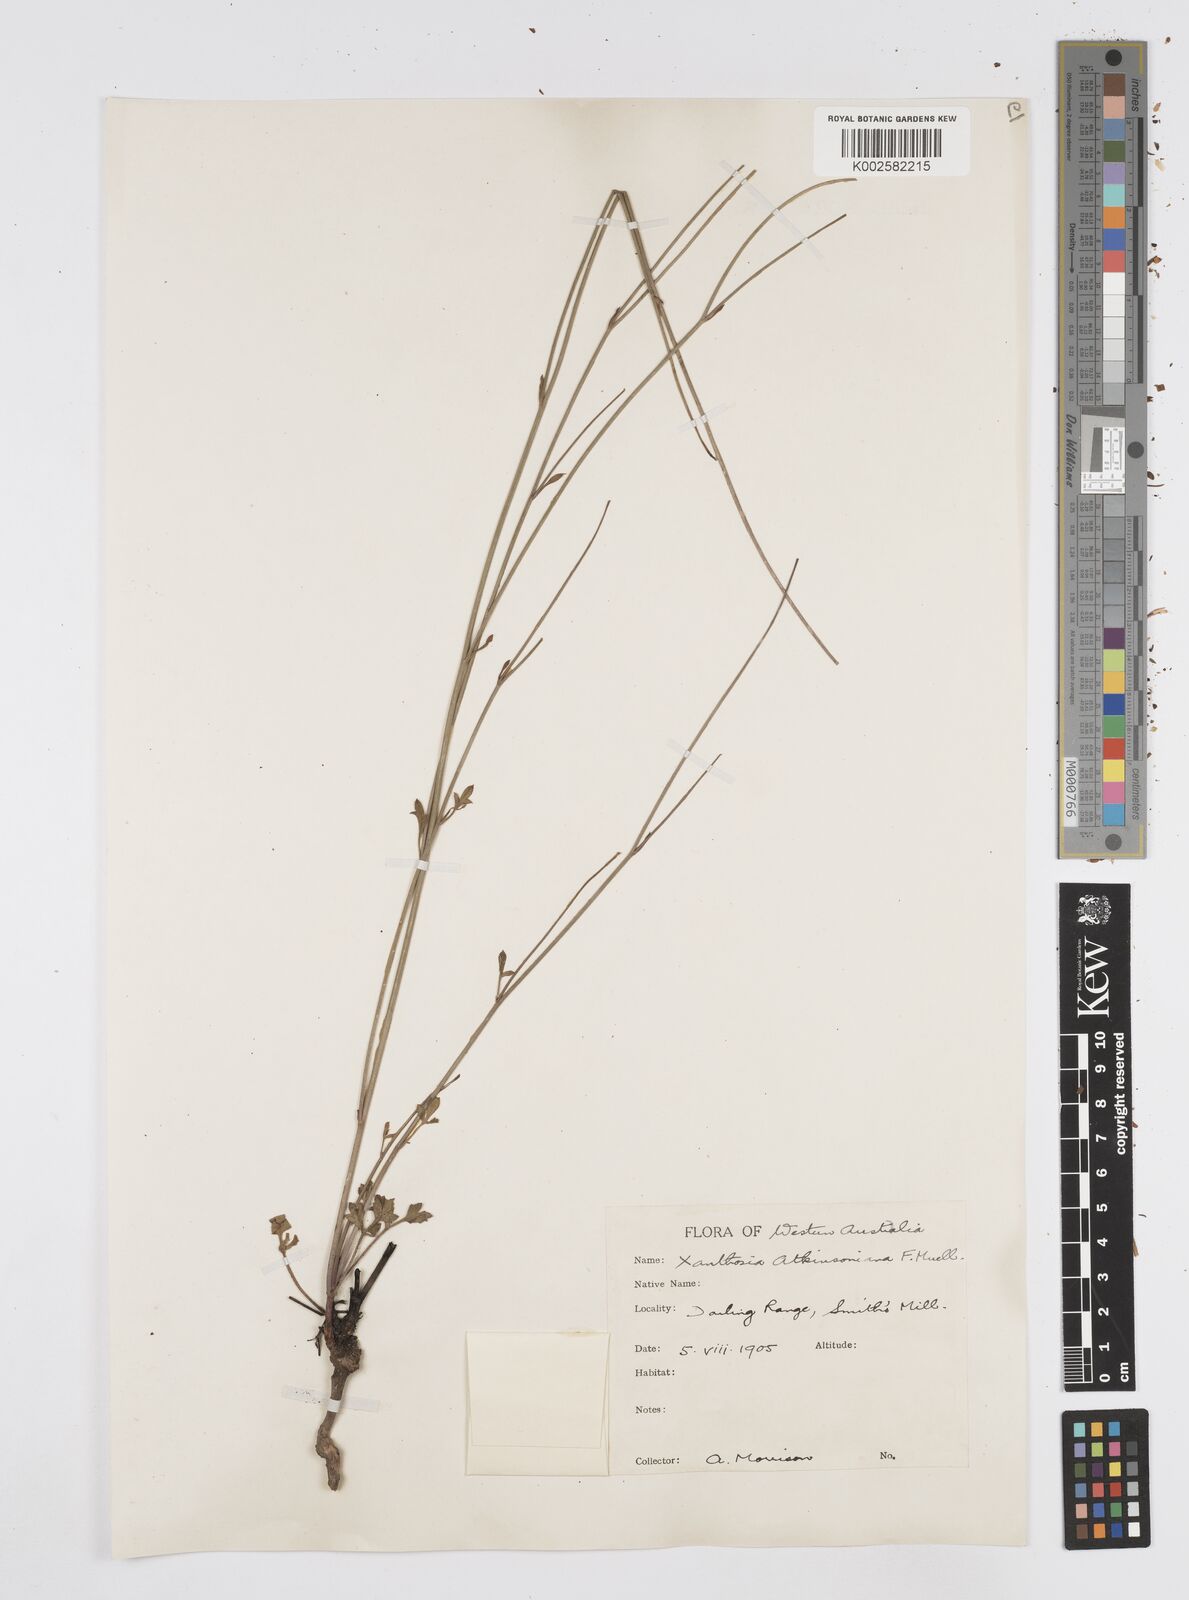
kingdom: Plantae
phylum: Tracheophyta
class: Magnoliopsida
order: Apiales
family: Apiaceae
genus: Xanthosia
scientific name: Xanthosia atkinsoniana
